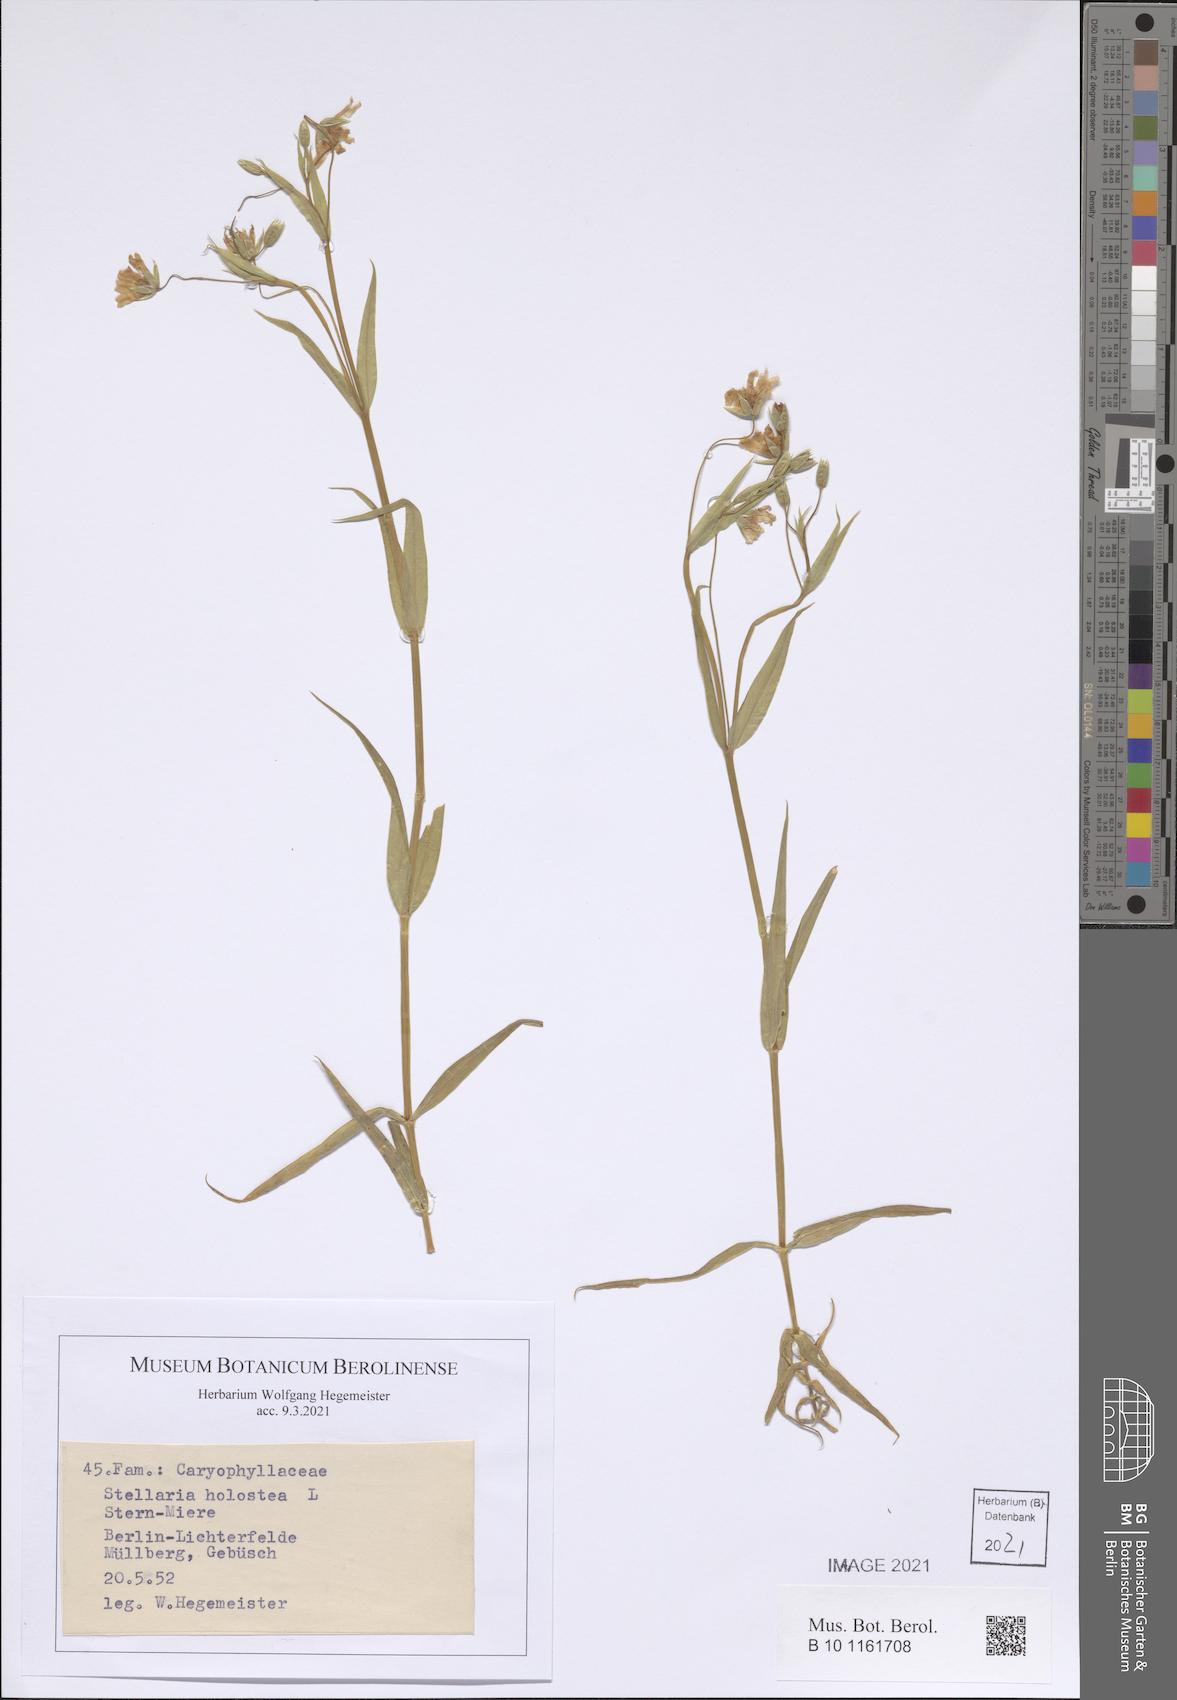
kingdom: Plantae
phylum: Tracheophyta
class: Magnoliopsida
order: Caryophyllales
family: Caryophyllaceae
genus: Rabelera
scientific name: Rabelera holostea
